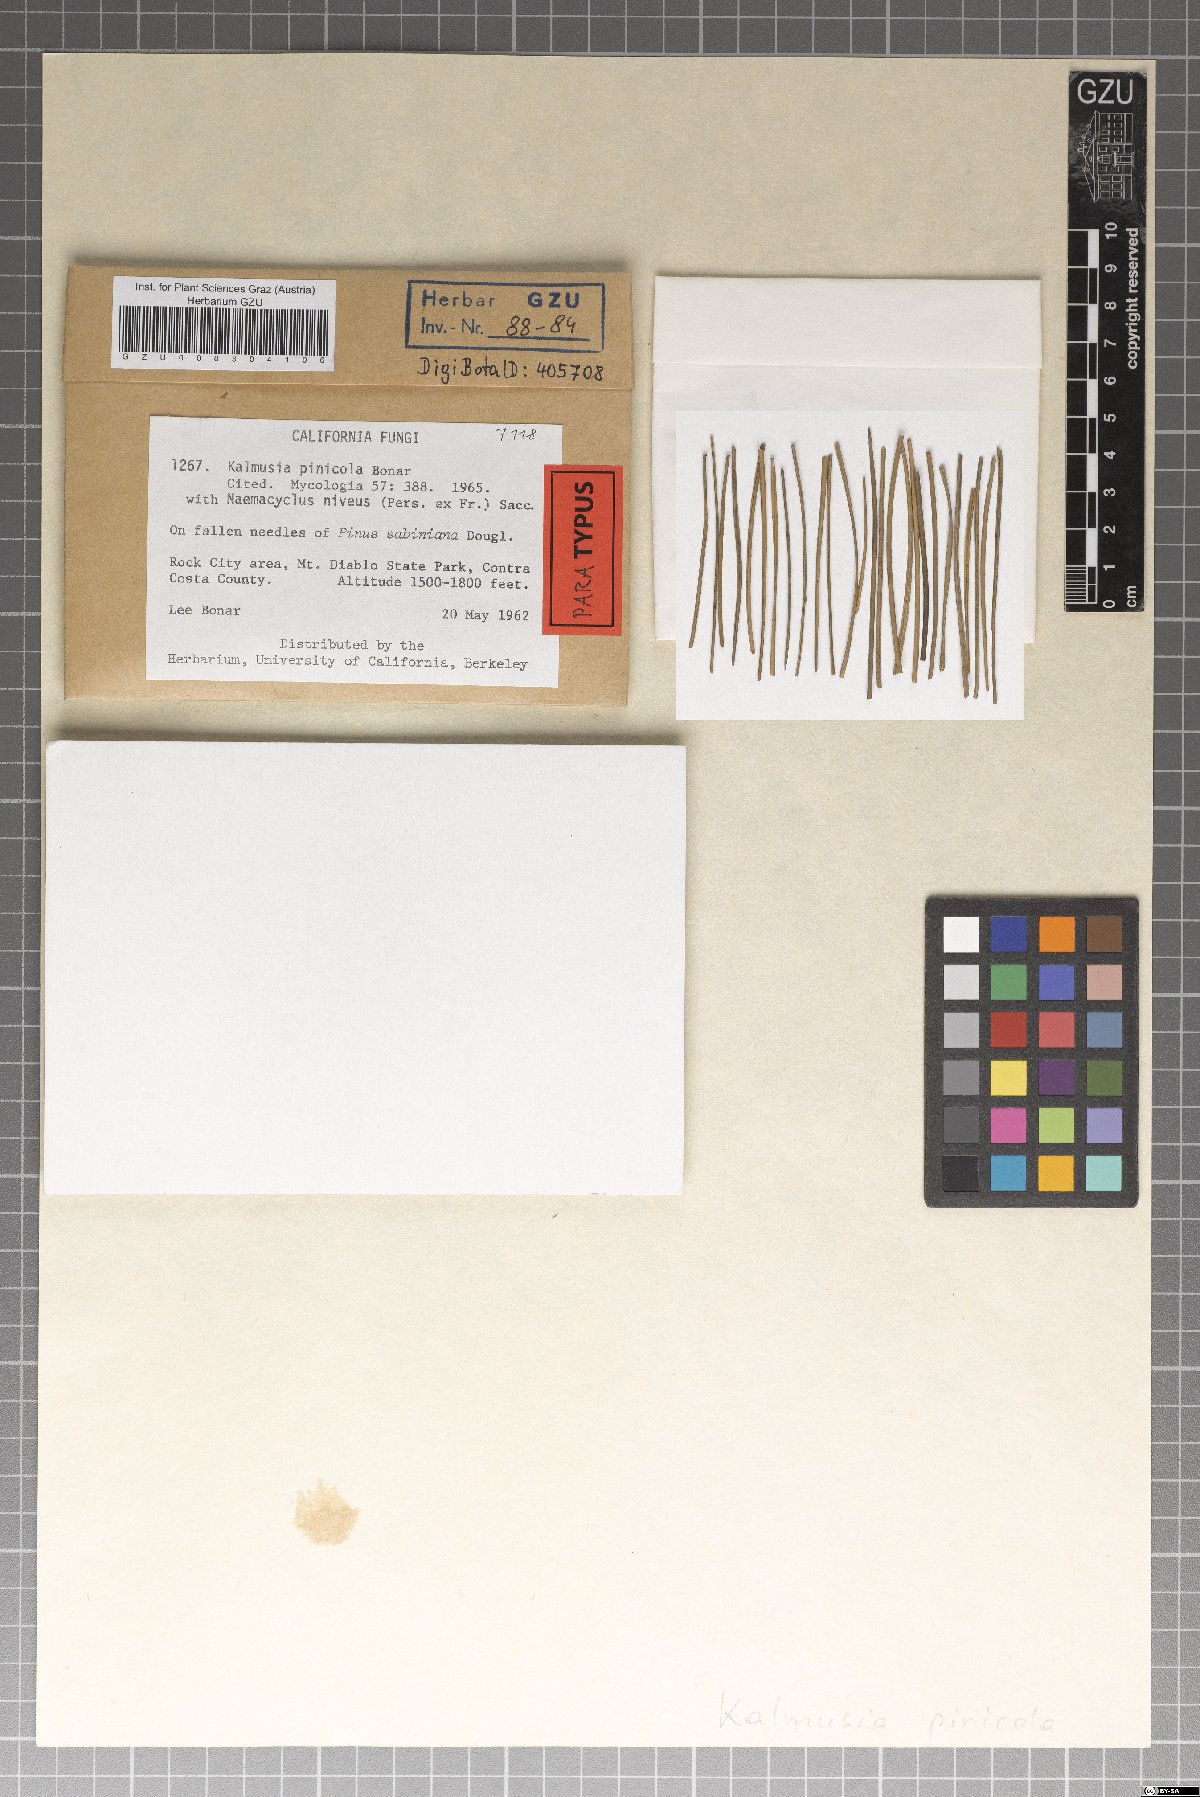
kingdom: Fungi
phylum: Ascomycota
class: Dothideomycetes
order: Pleosporales
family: Didymosphaeriaceae
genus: Kalmusia
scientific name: Kalmusia pinicola
